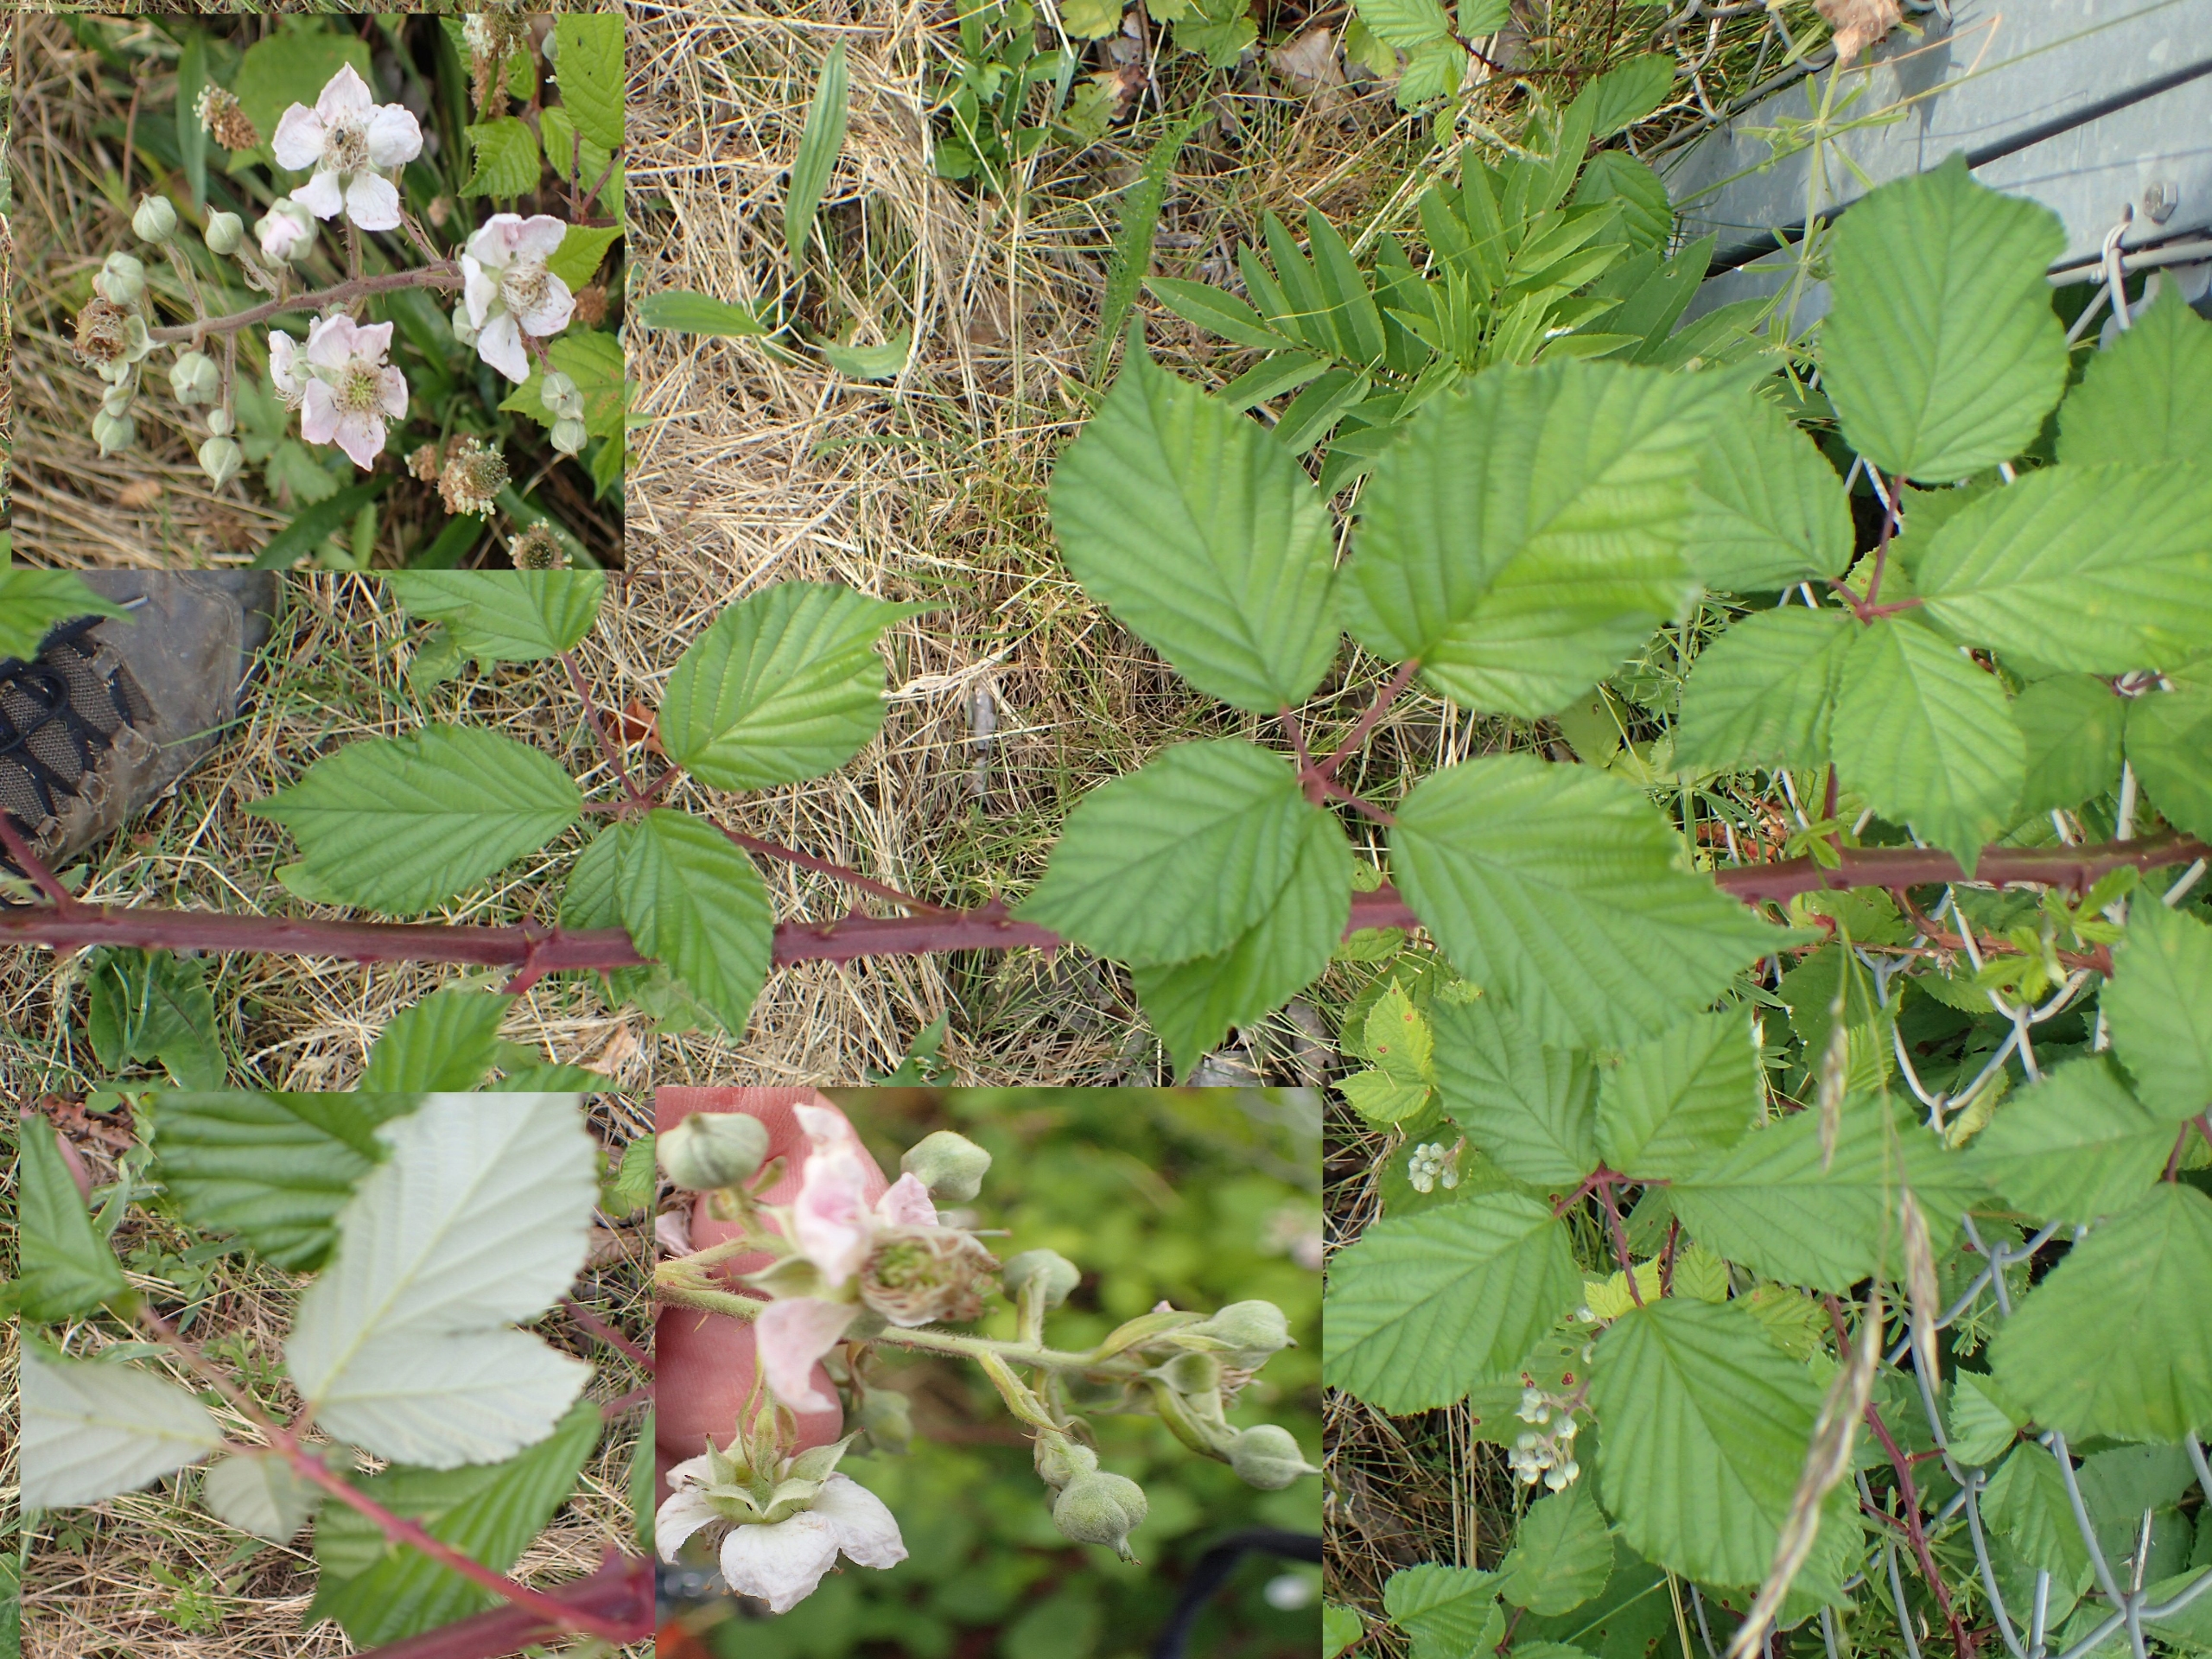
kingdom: Plantae
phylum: Tracheophyta
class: Magnoliopsida
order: Rosales
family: Rosaceae
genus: Rubus
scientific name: Rubus armeniacus
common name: Armensk brombær
